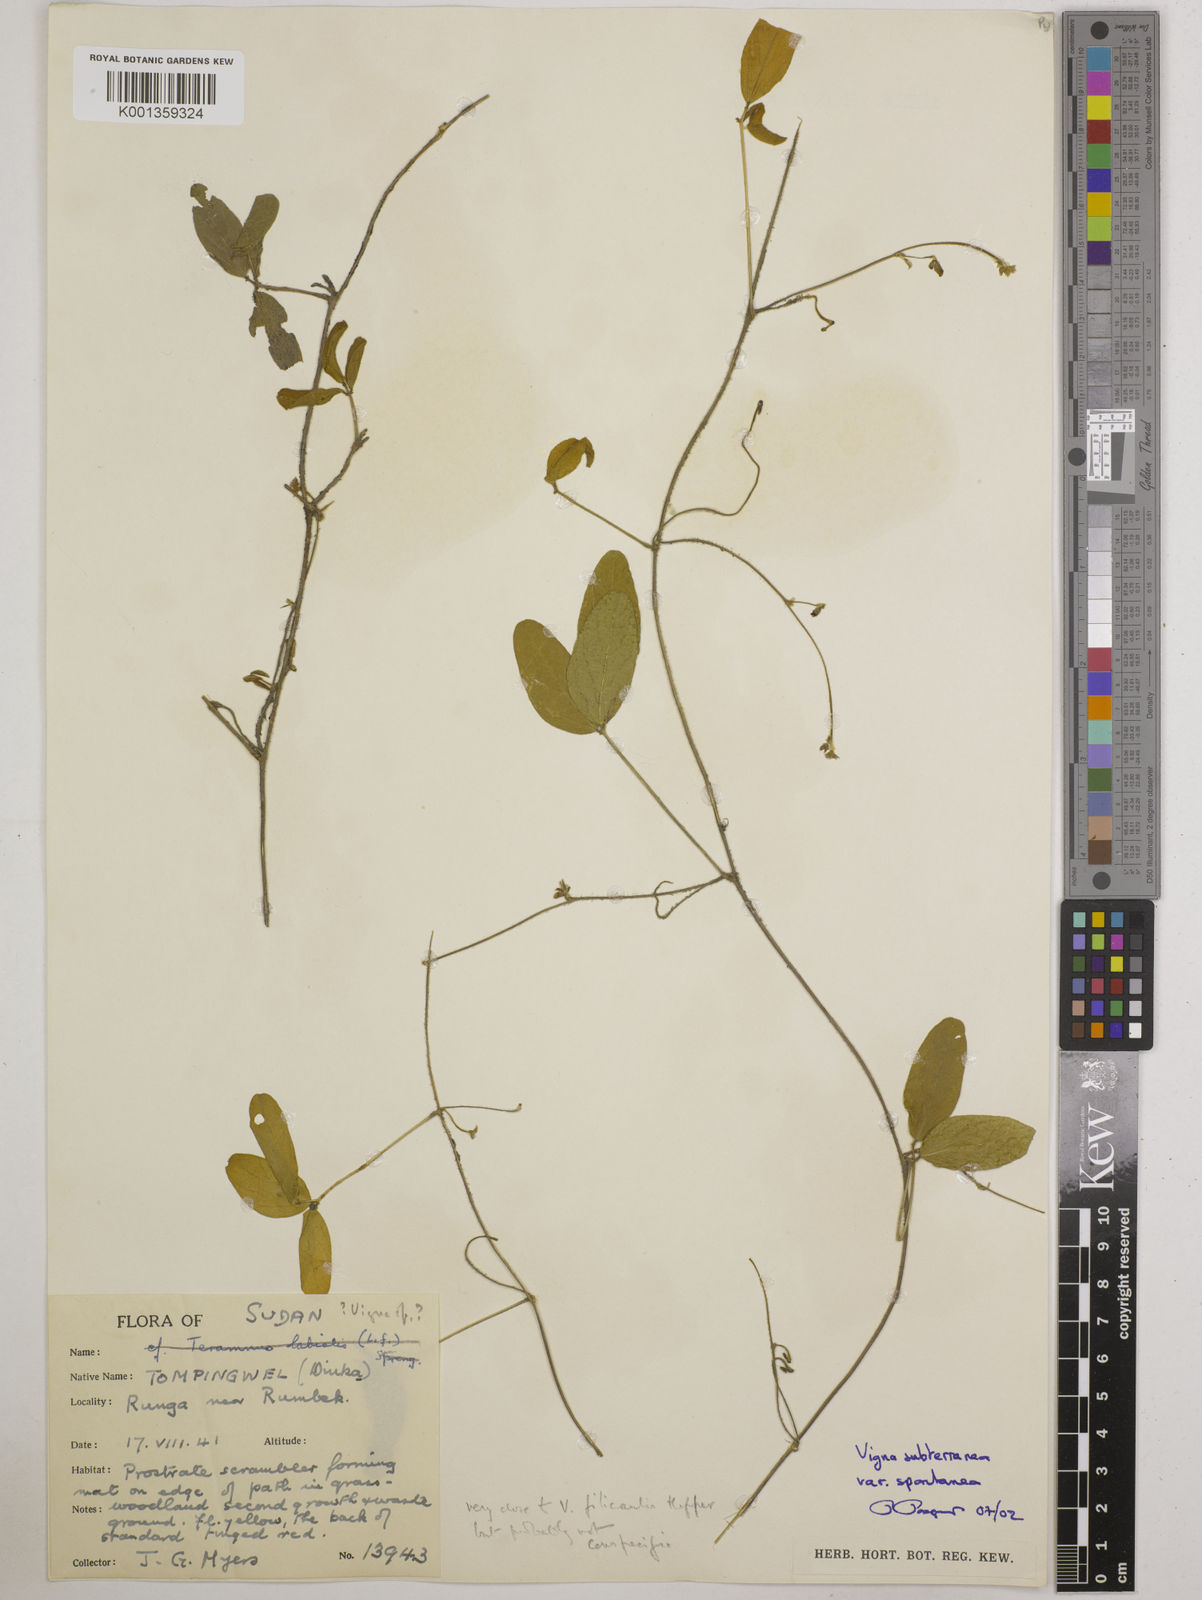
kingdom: Plantae
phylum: Tracheophyta
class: Magnoliopsida
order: Fabales
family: Fabaceae
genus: Vigna
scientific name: Vigna
